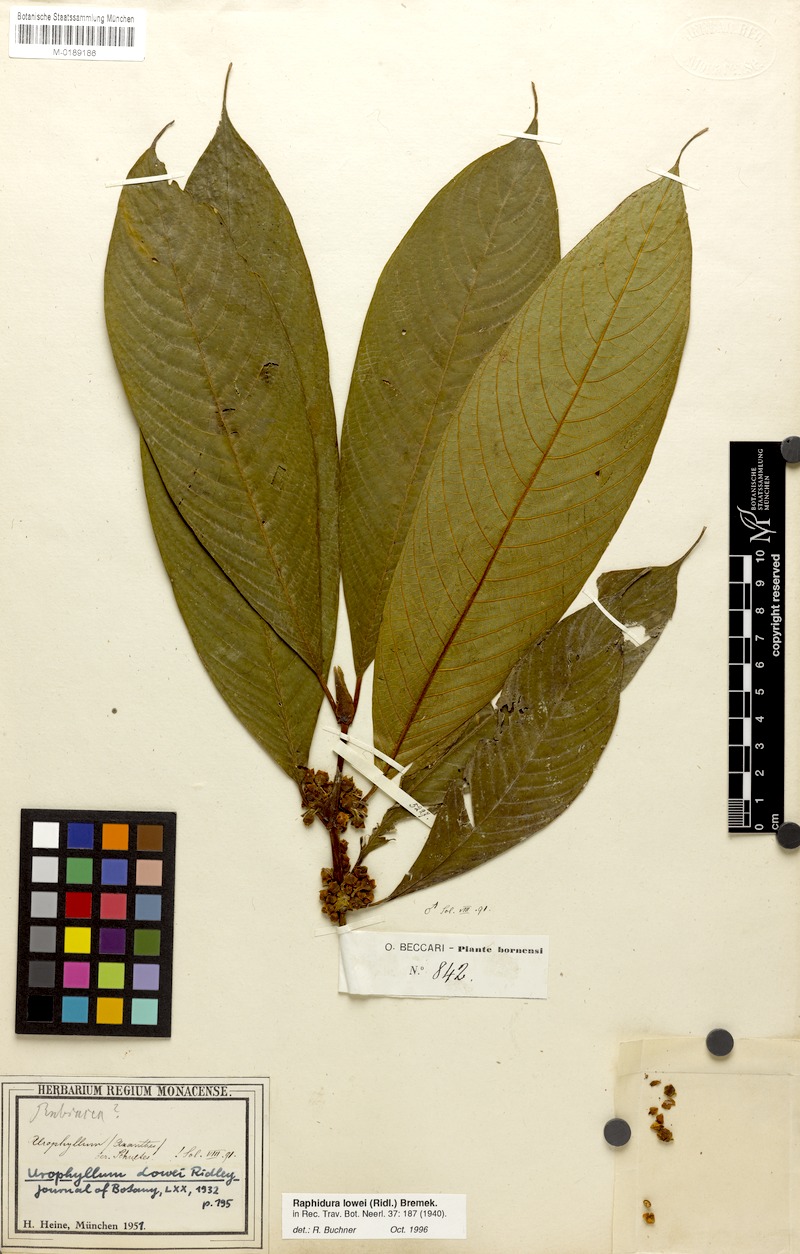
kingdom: Plantae
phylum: Tracheophyta
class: Magnoliopsida
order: Gentianales
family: Rubiaceae
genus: Rhaphidura
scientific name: Rhaphidura lowii
